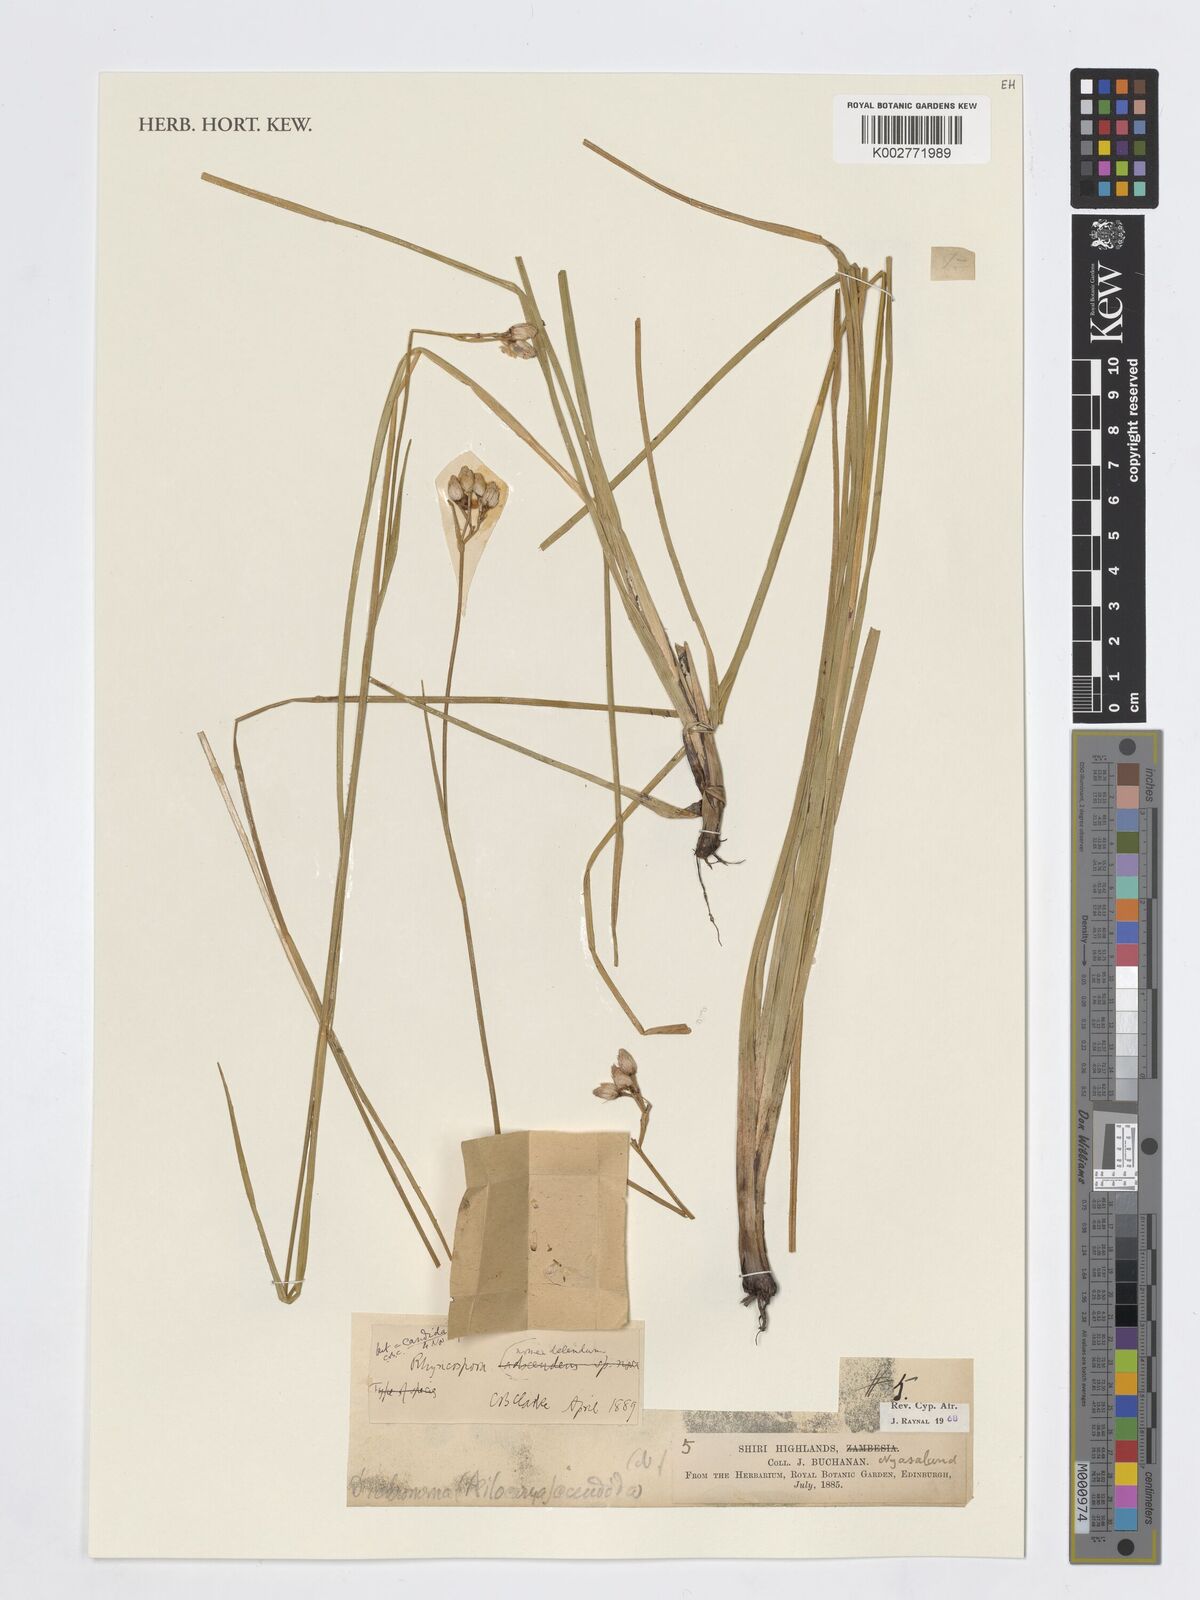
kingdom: Plantae
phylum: Tracheophyta
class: Liliopsida
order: Poales
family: Cyperaceae
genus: Rhynchospora
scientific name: Rhynchospora candida
